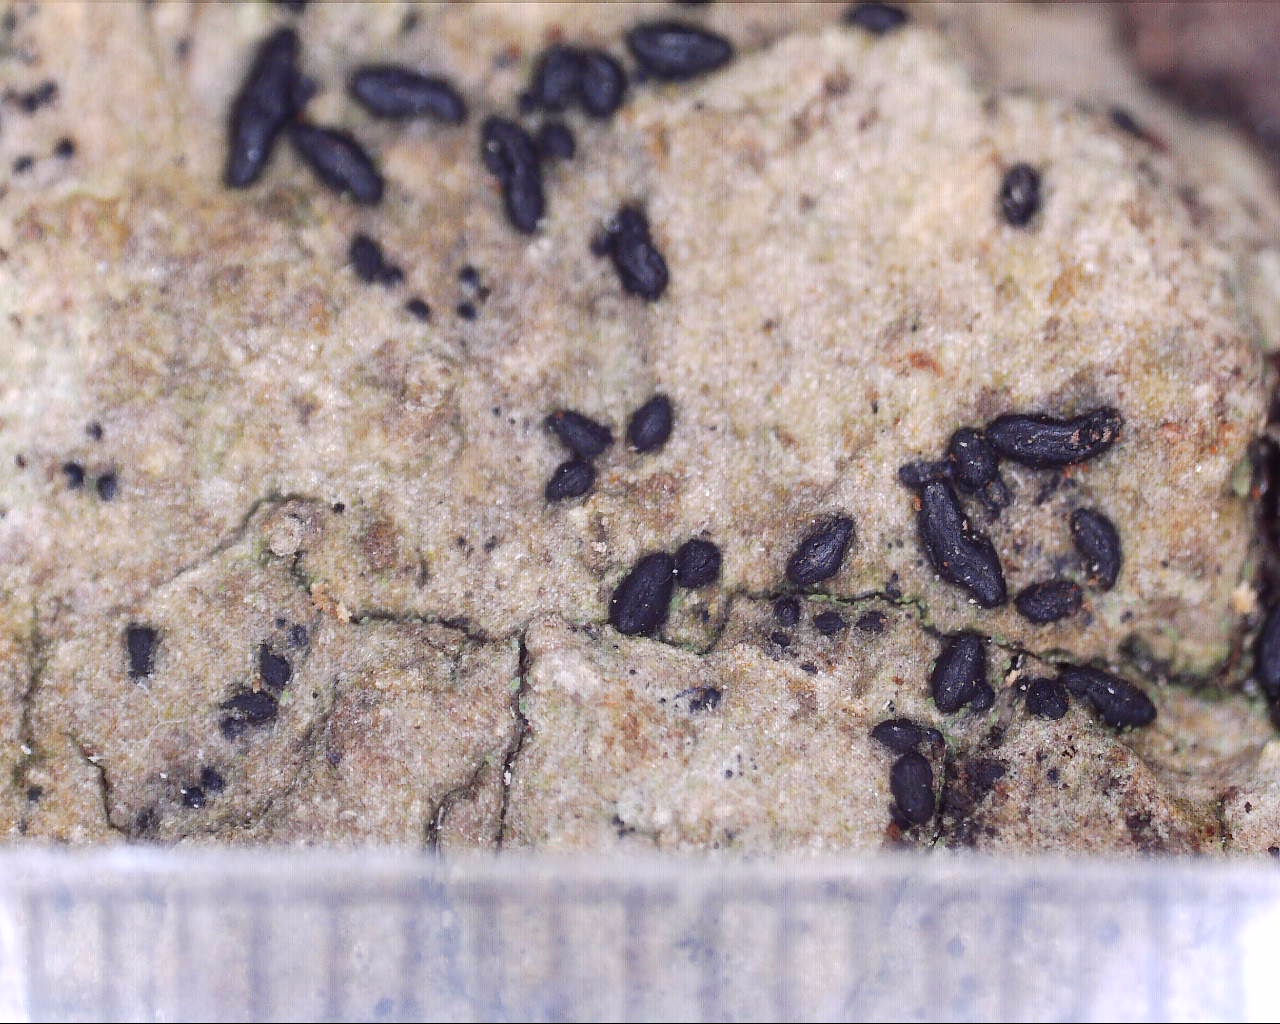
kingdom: Fungi
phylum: Ascomycota
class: Dothideomycetes
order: Hysteriales
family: Hysteriaceae
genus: Hysterium
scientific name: Hysterium acuminatum
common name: almindelig kulmund
